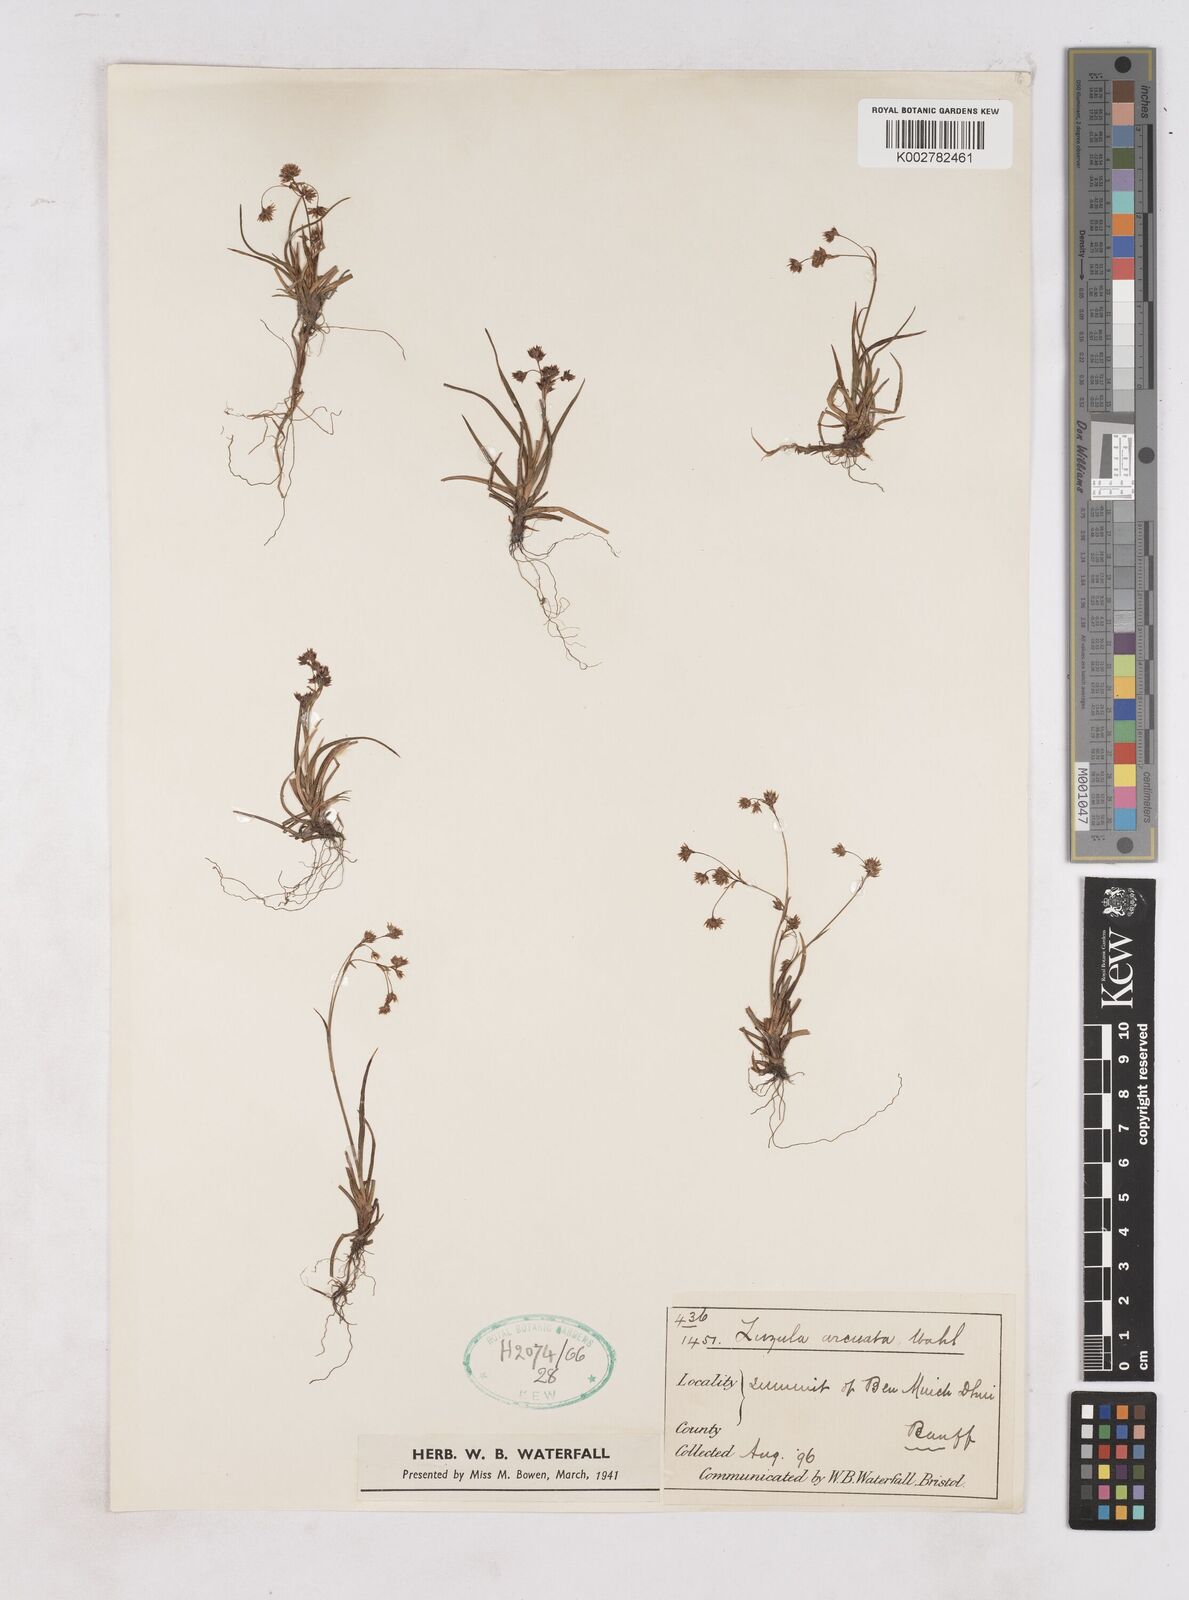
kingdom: Plantae
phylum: Tracheophyta
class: Liliopsida
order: Poales
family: Juncaceae
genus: Luzula
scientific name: Luzula arcuata
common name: Curved wood-rush
